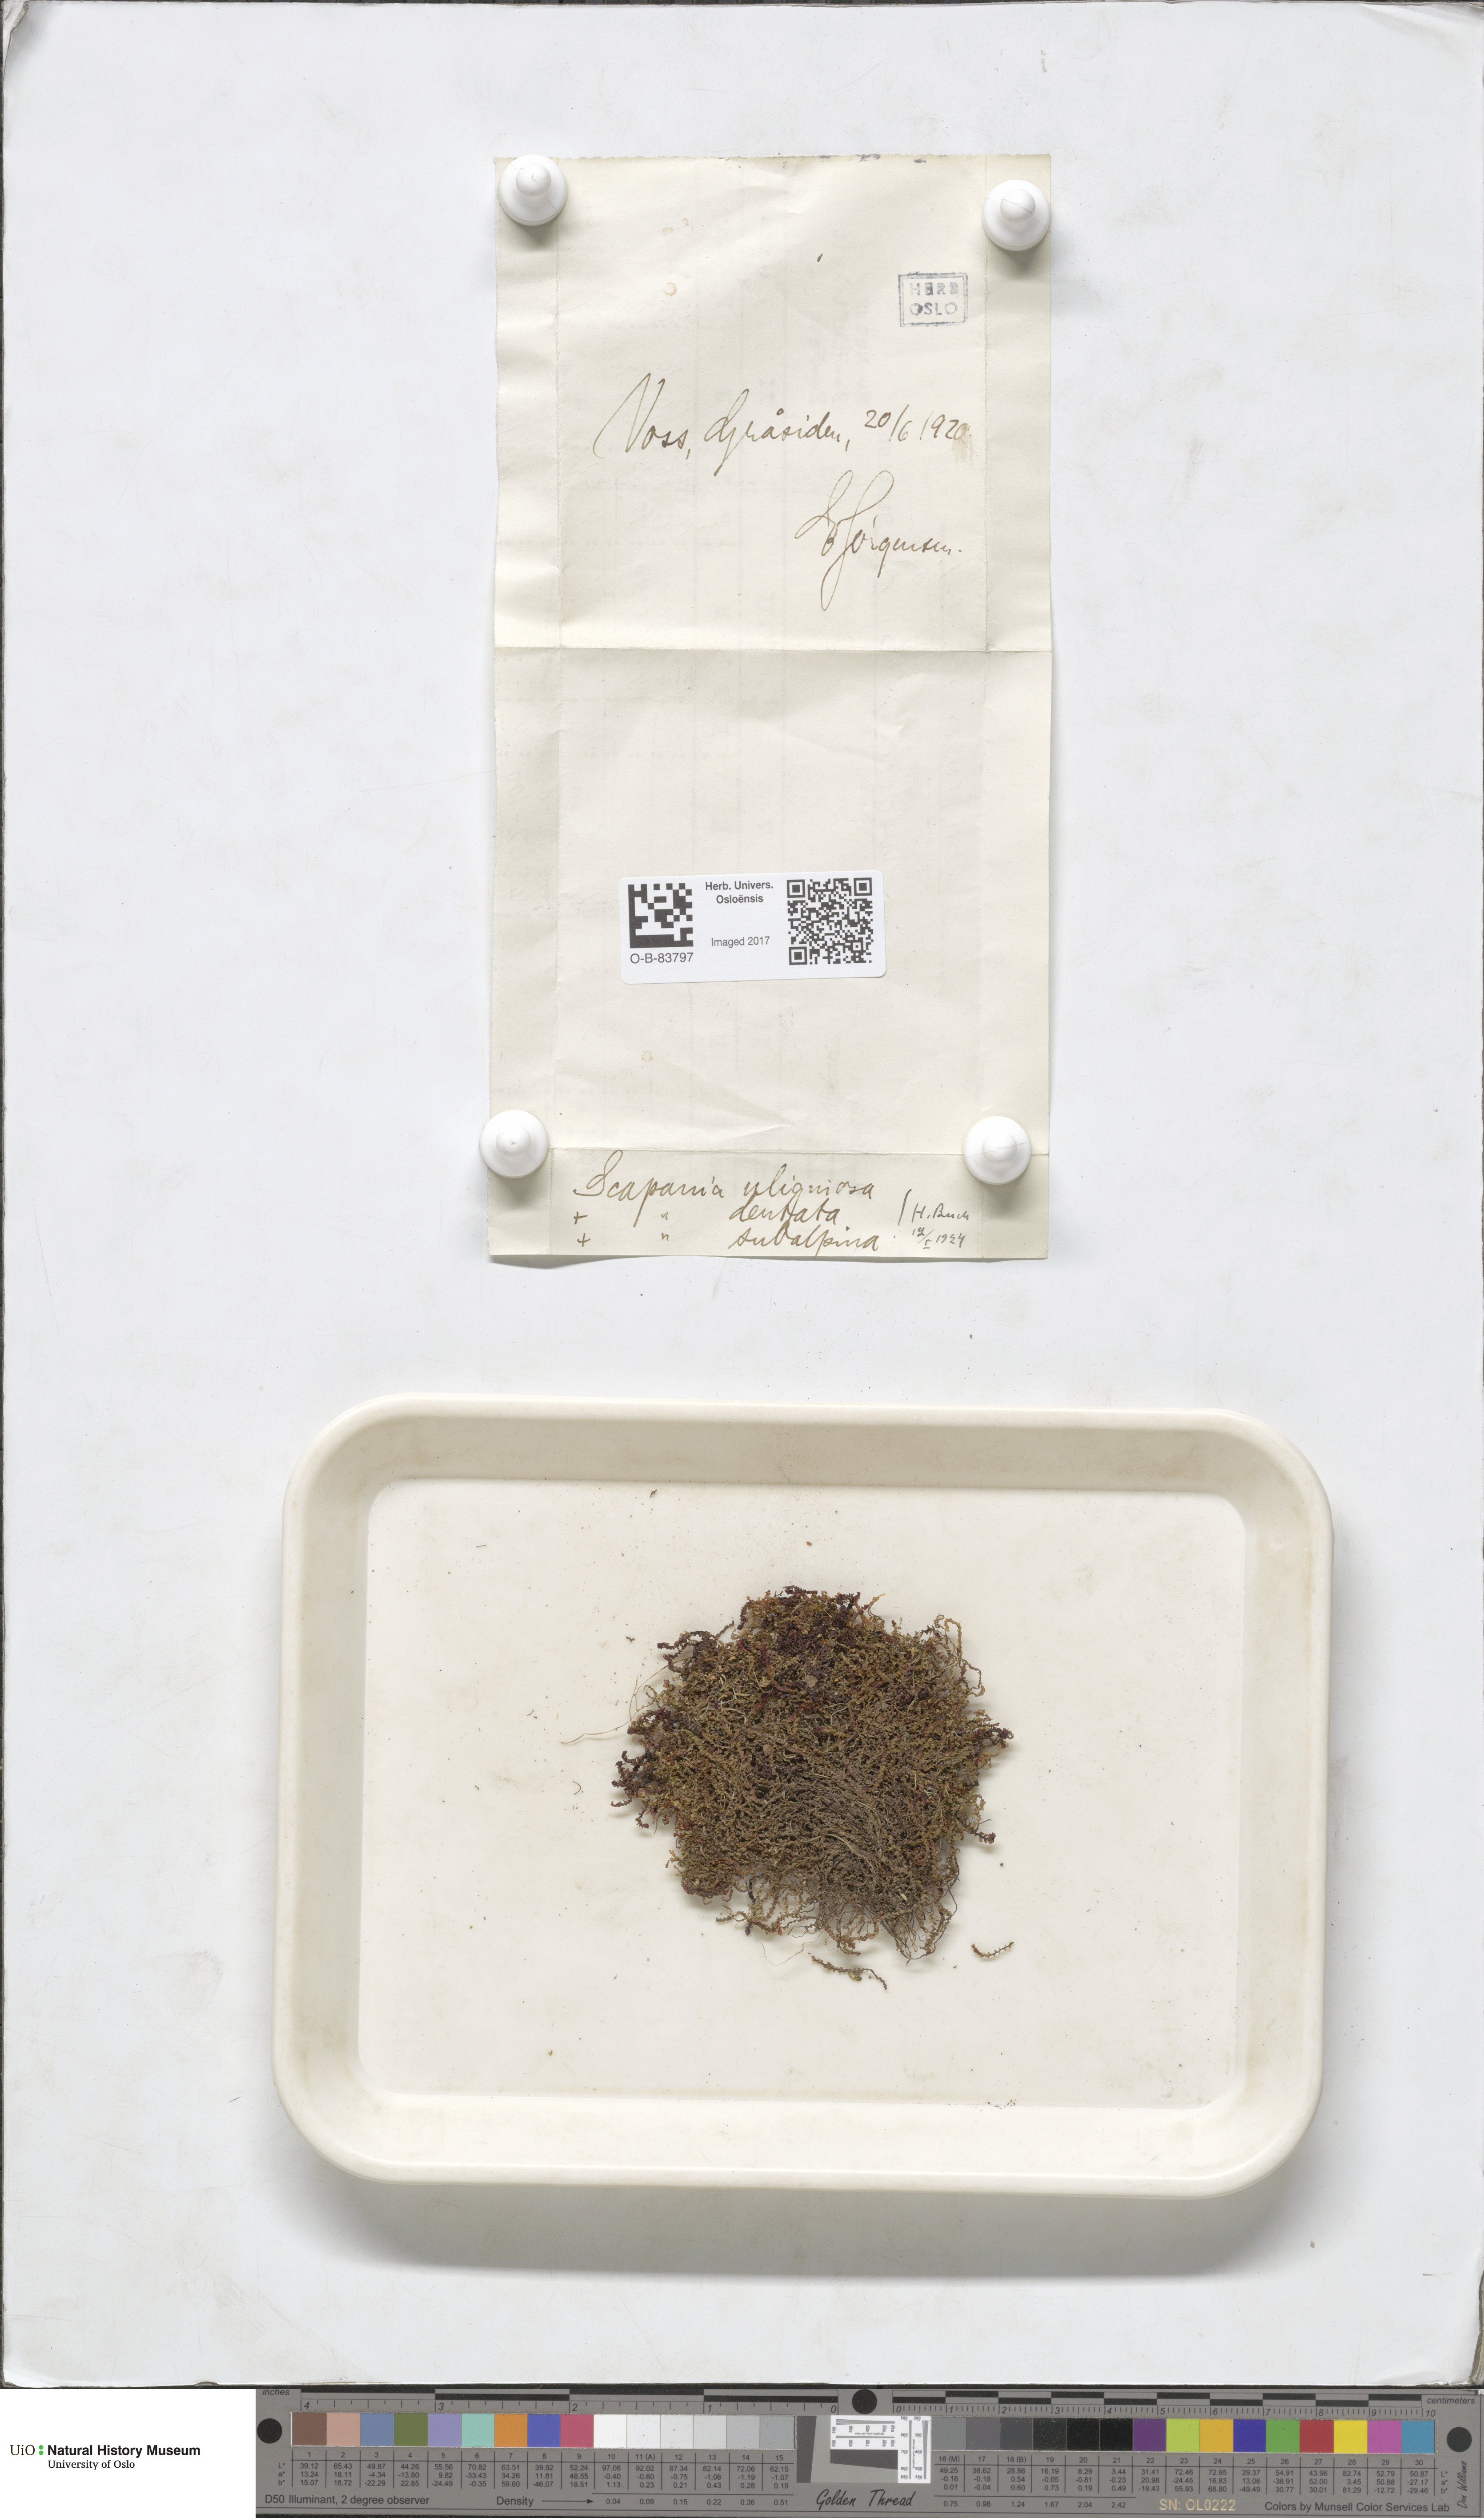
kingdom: Plantae
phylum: Marchantiophyta
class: Jungermanniopsida
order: Jungermanniales
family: Scapaniaceae
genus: Scapania
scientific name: Scapania uliginosa
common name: Marsh earwort
